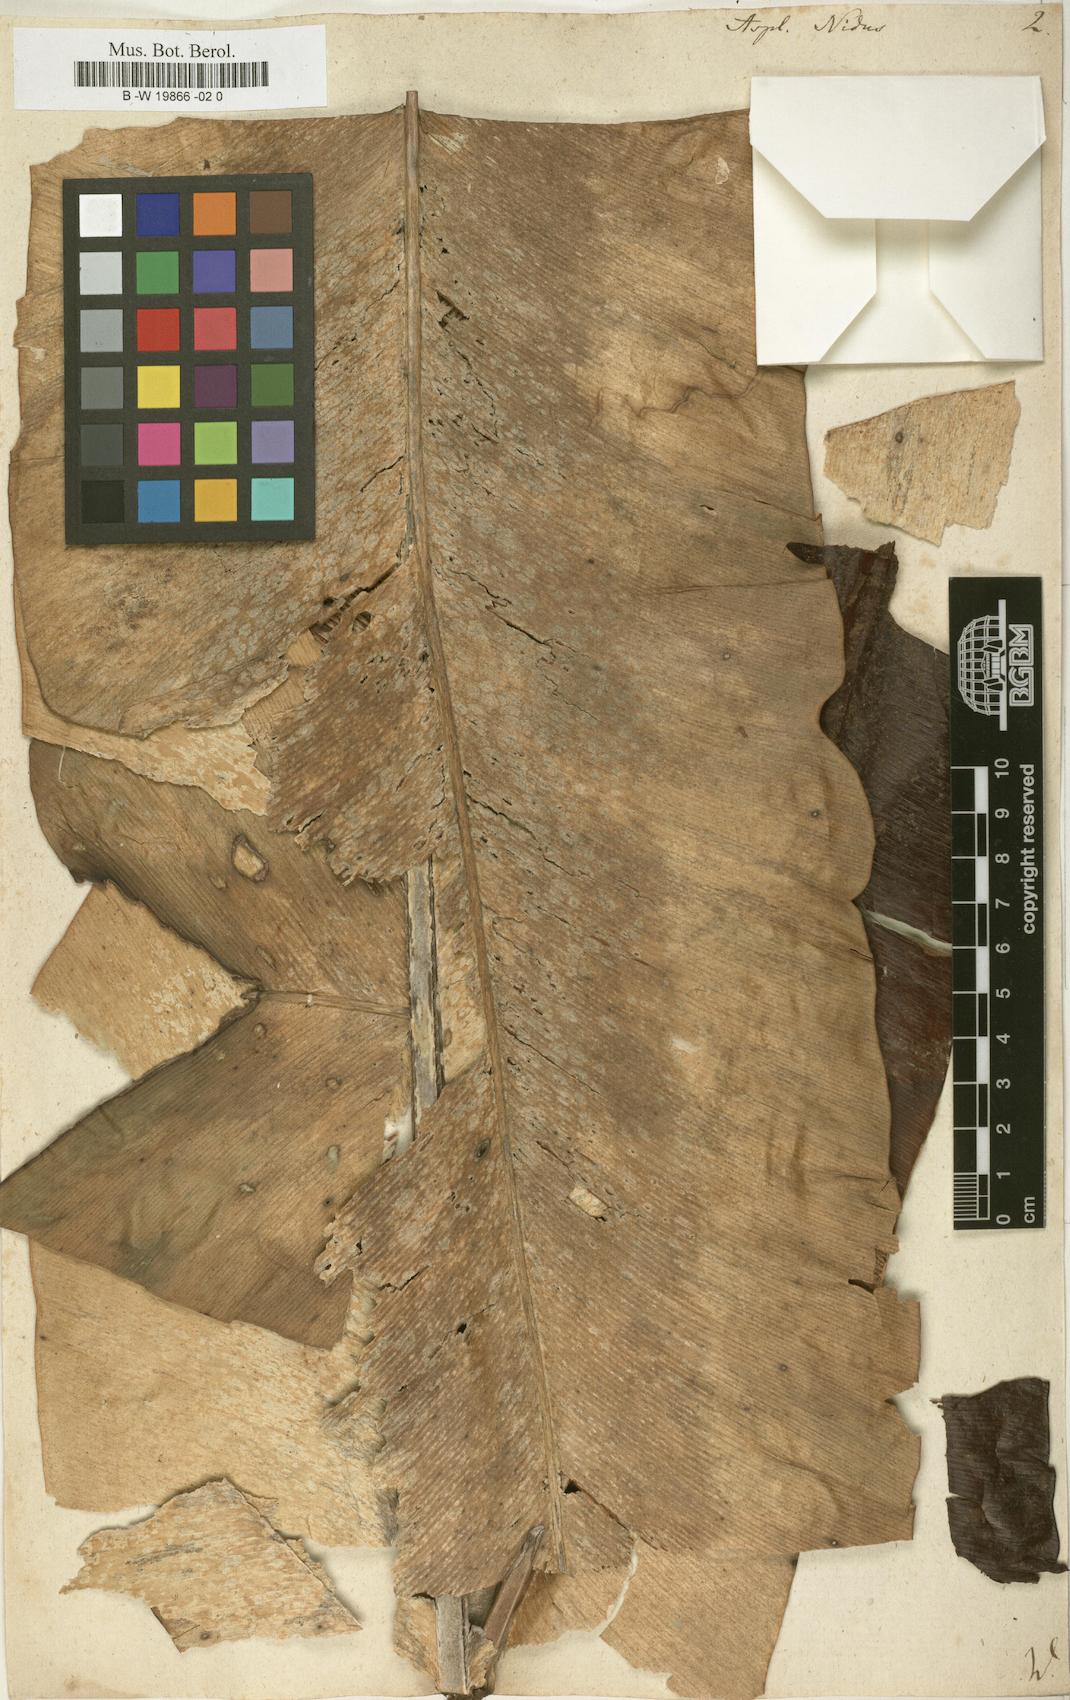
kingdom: Plantae
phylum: Tracheophyta
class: Polypodiopsida
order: Polypodiales
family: Aspleniaceae
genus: Asplenium
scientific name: Asplenium nidus
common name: Bird's-nest fern
